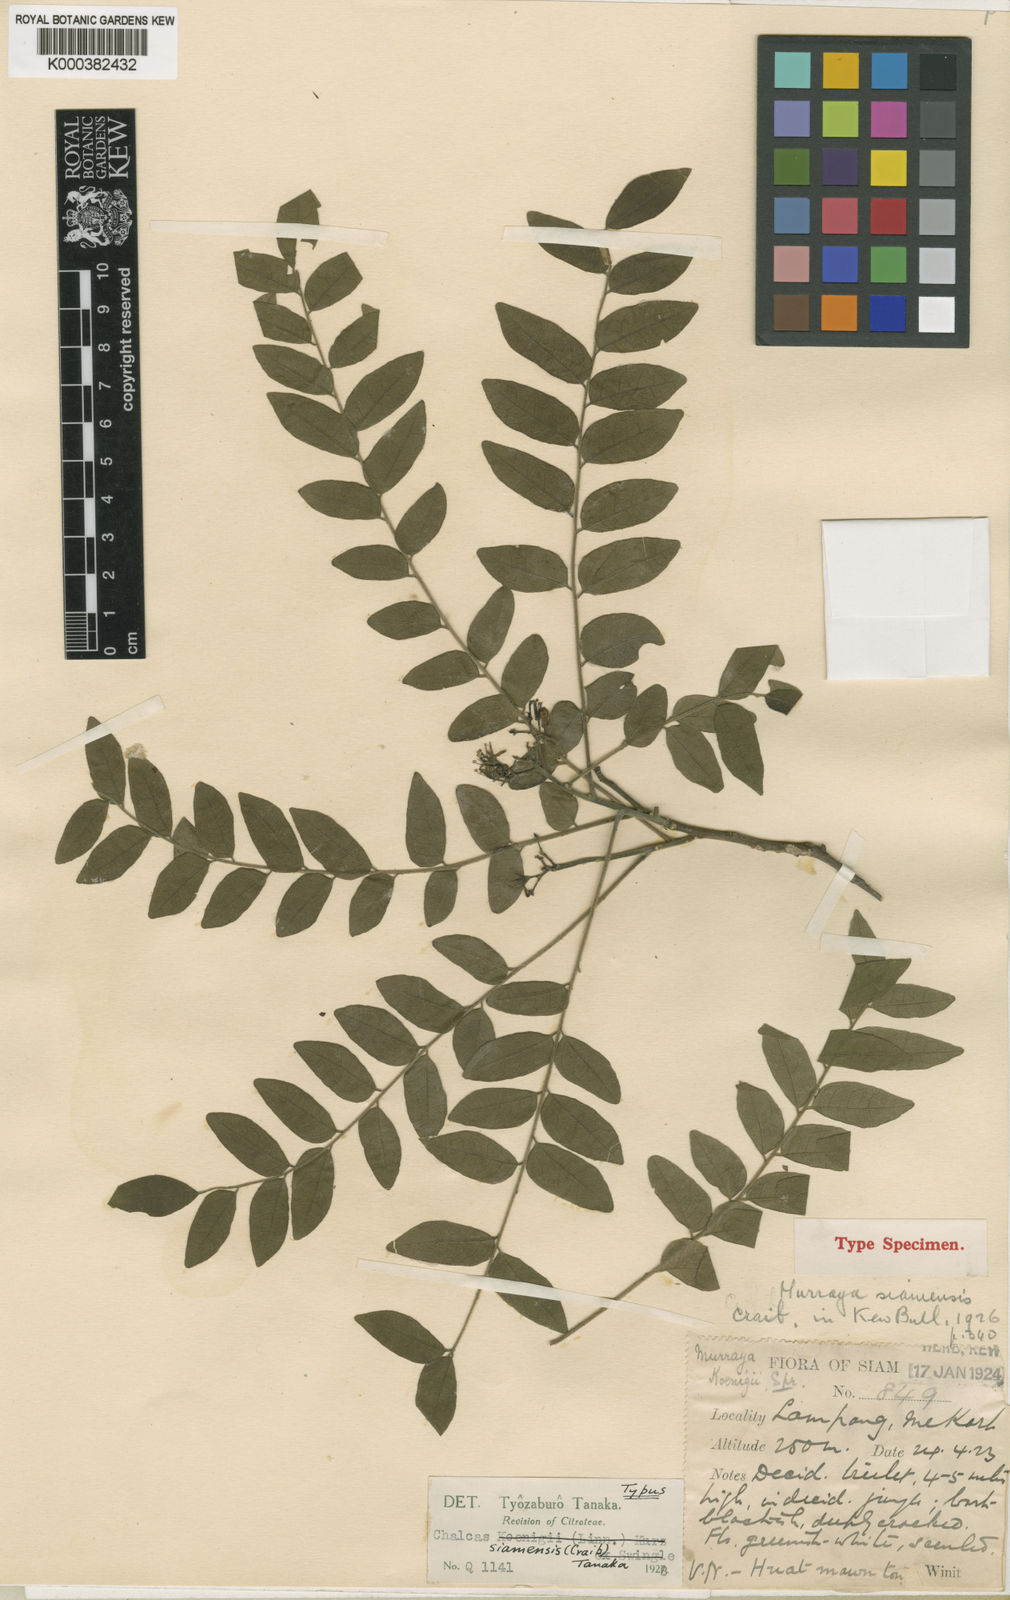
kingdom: Plantae
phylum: Tracheophyta
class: Magnoliopsida
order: Sapindales
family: Rutaceae
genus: Murraya
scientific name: Murraya koenigii
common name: Curry-plant
